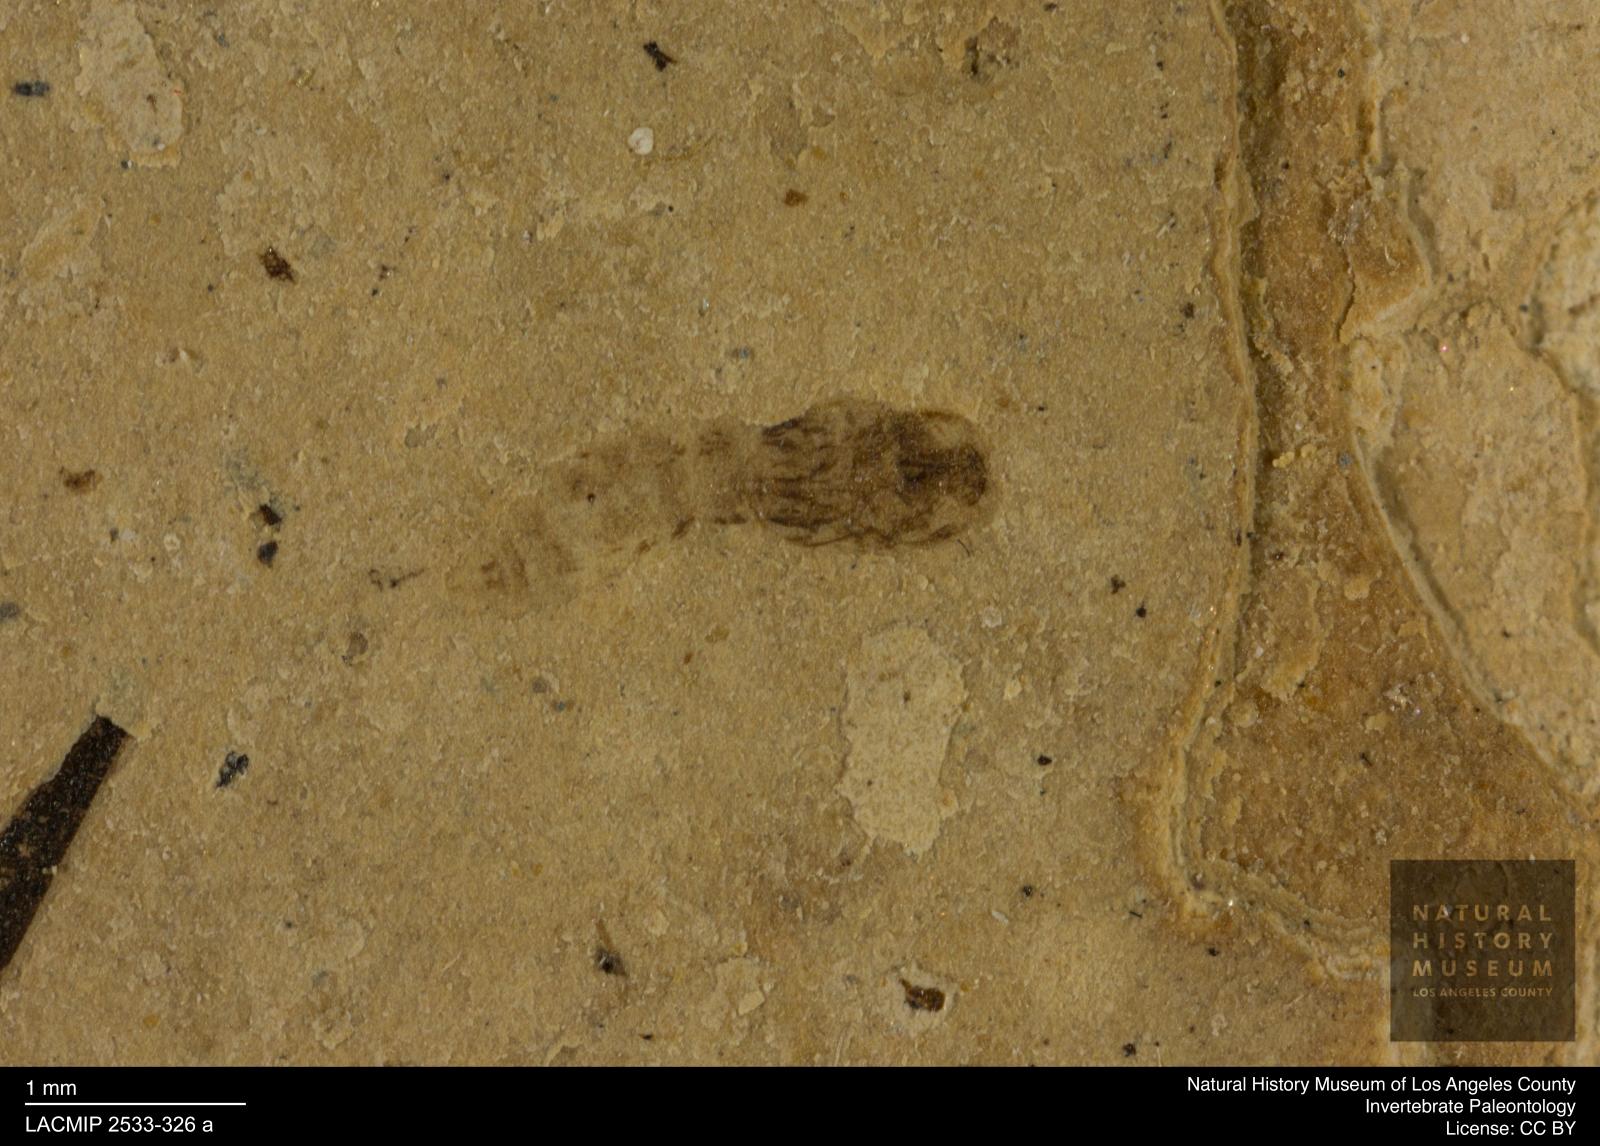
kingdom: Animalia
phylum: Arthropoda
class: Insecta
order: Diptera
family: Ceratopogonidae
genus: Ceratopogon
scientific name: Ceratopogon
